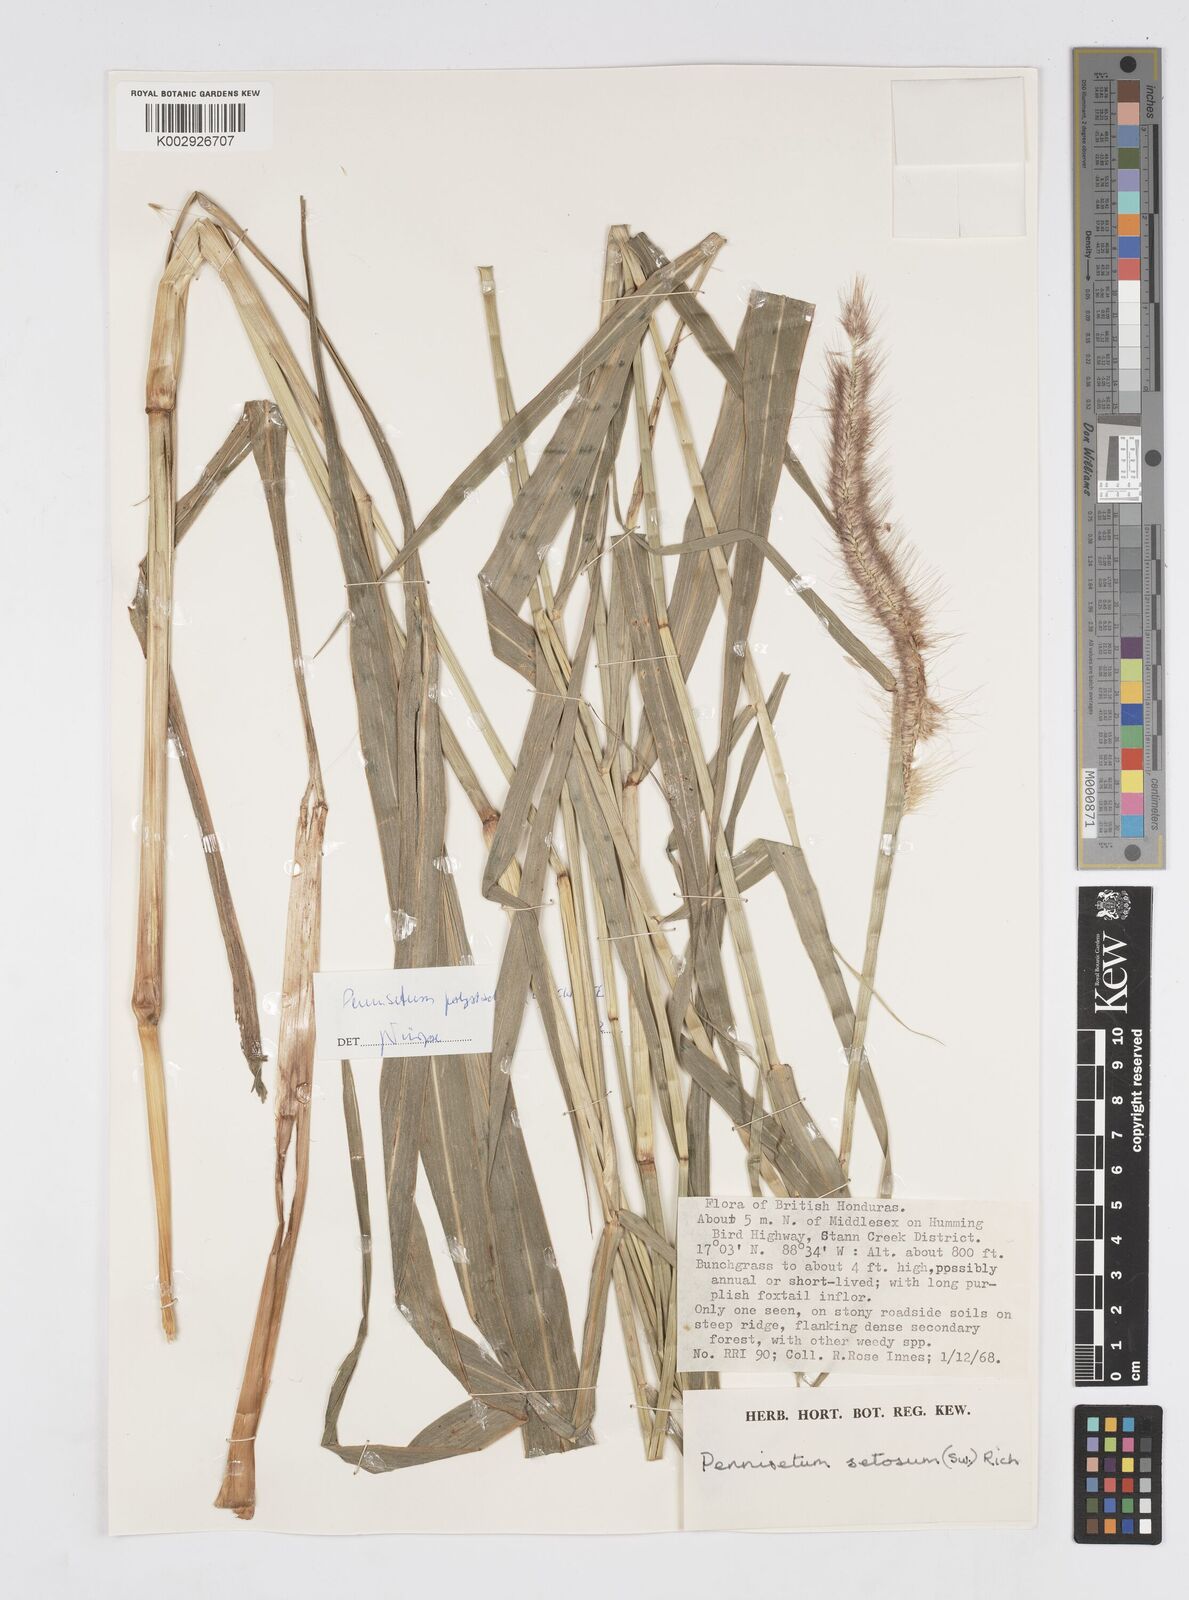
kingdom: Plantae
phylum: Tracheophyta
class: Liliopsida
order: Poales
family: Poaceae
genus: Cenchrus
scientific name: Cenchrus setosus
